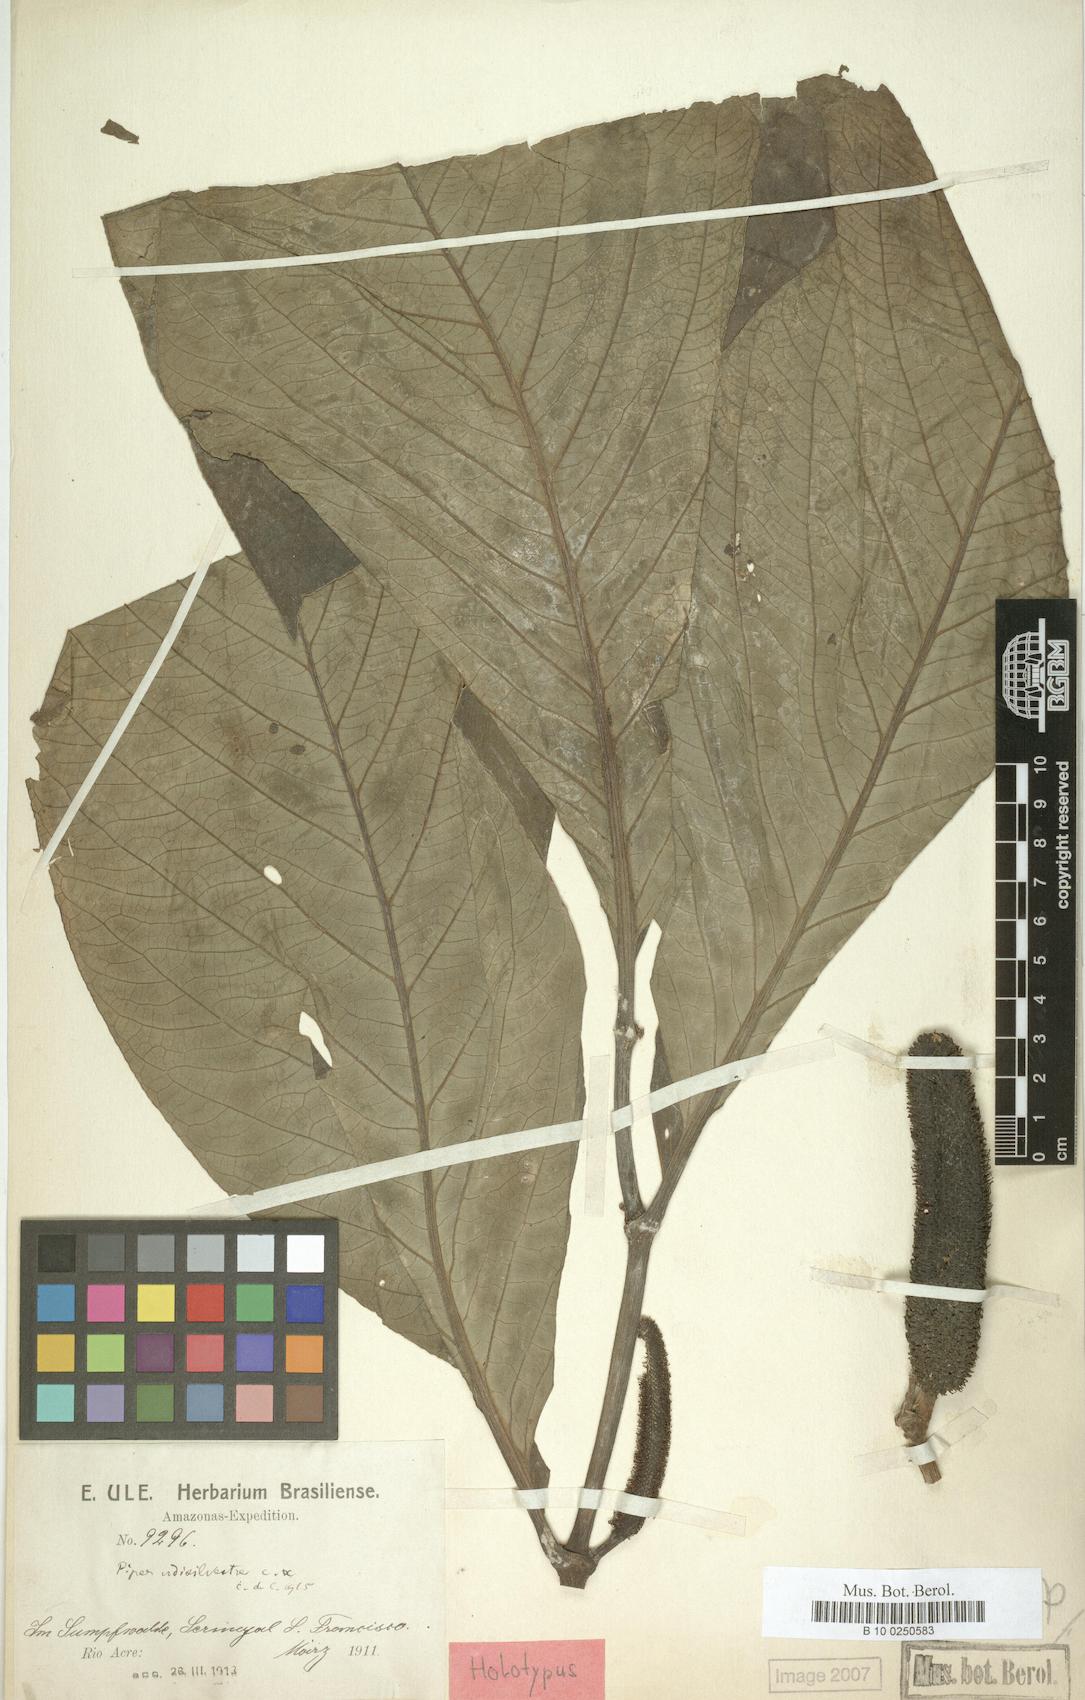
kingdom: Plantae
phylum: Tracheophyta
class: Magnoliopsida
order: Piperales
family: Piperaceae
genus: Piper
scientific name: Piper longifolium
